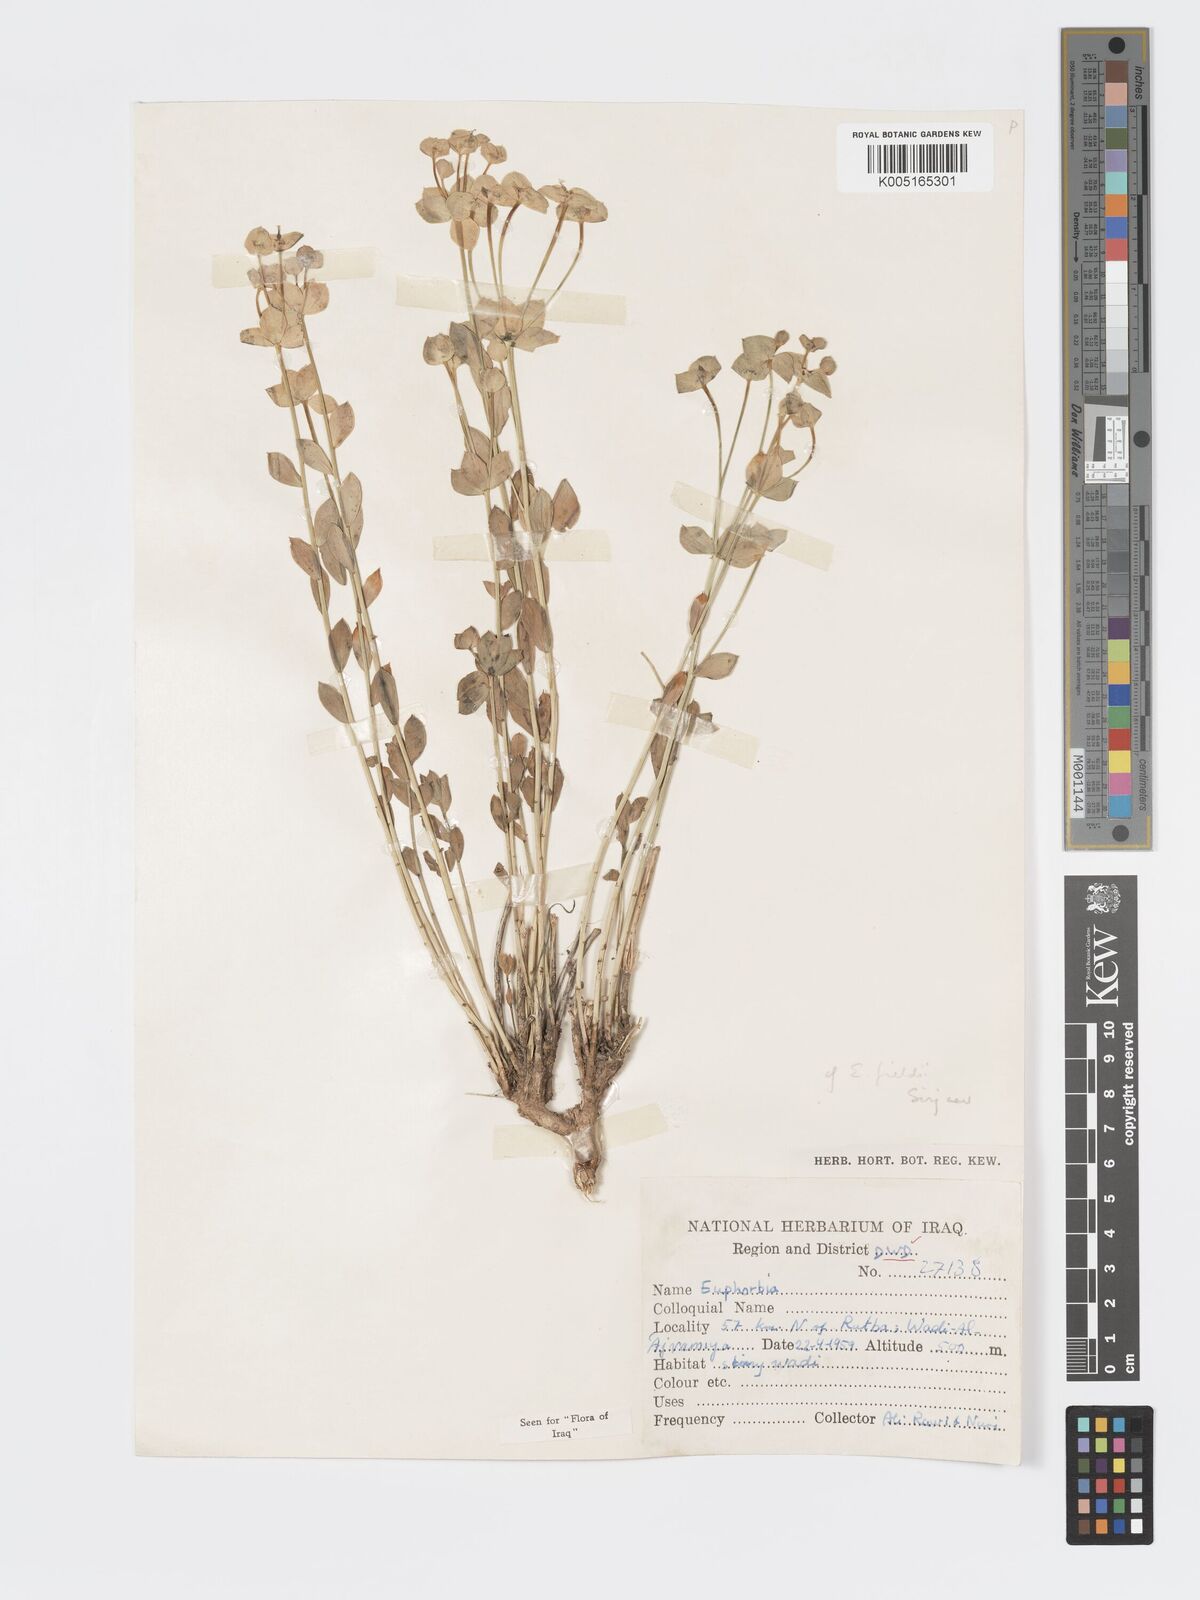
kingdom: Plantae
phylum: Tracheophyta
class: Magnoliopsida
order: Malpighiales
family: Euphorbiaceae
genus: Euphorbia
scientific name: Euphorbia
